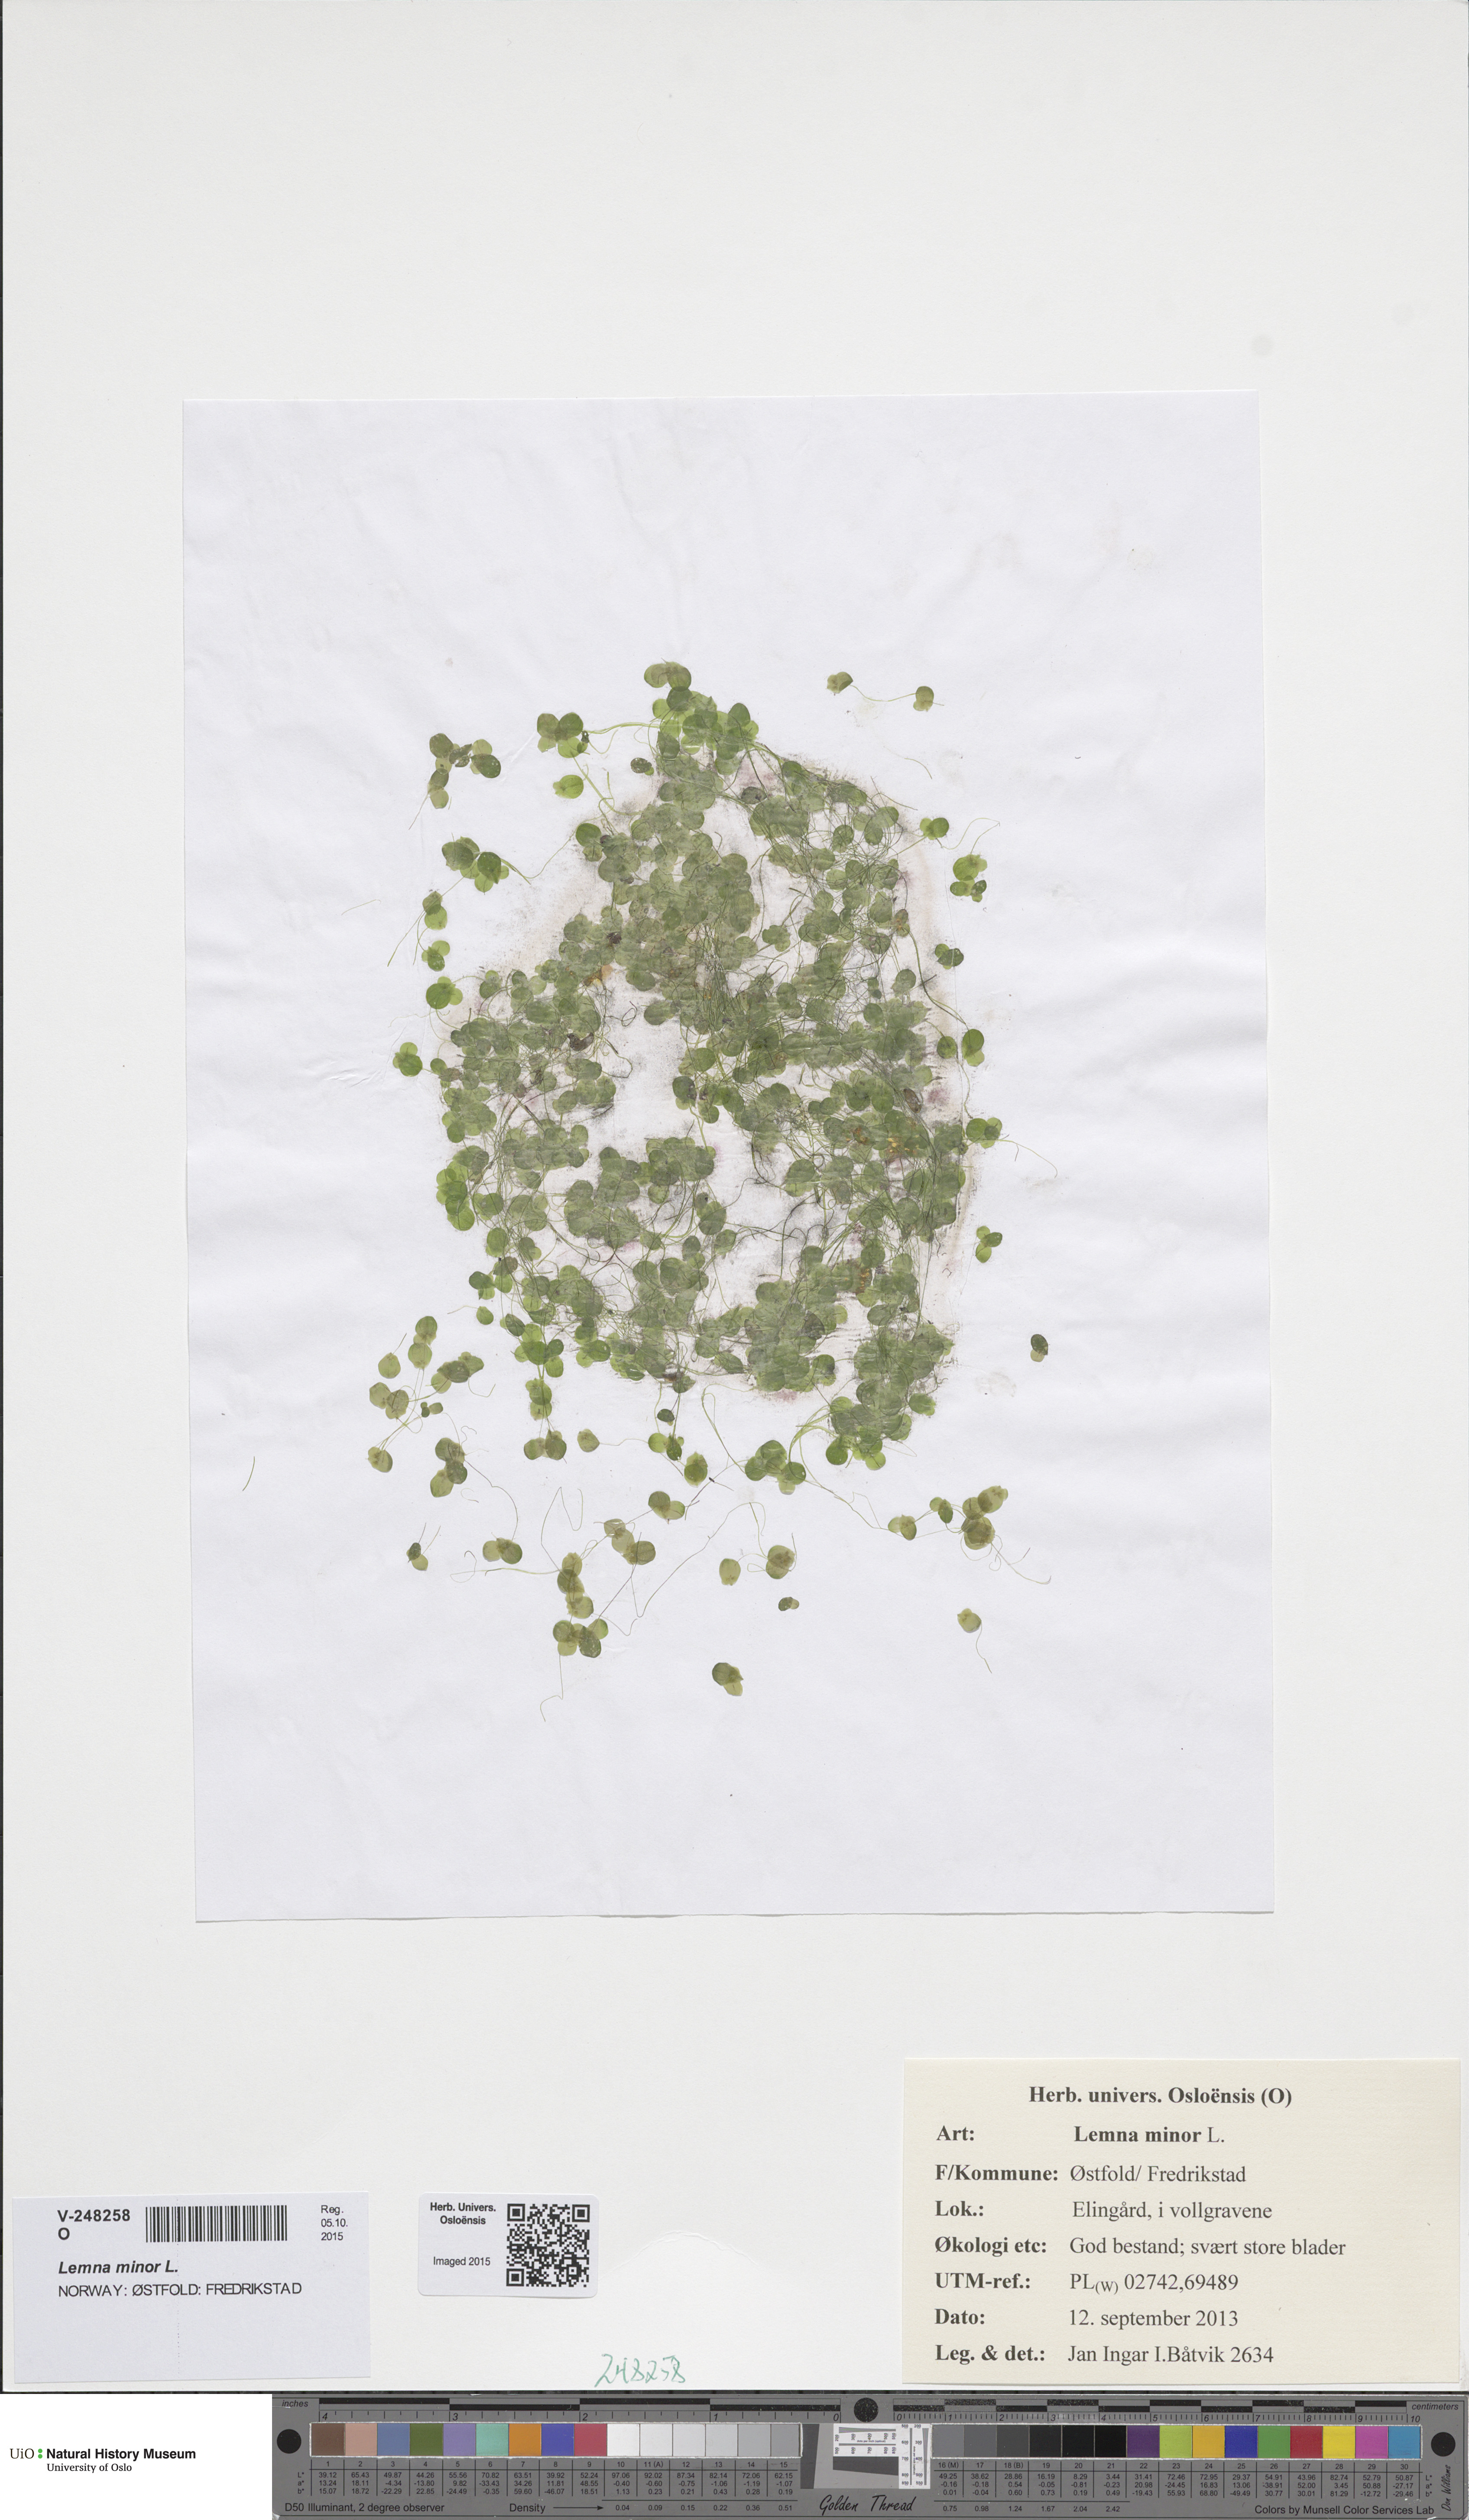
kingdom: Plantae
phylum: Tracheophyta
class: Liliopsida
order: Alismatales
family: Araceae
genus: Lemna
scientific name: Lemna minor
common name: Common duckweed
